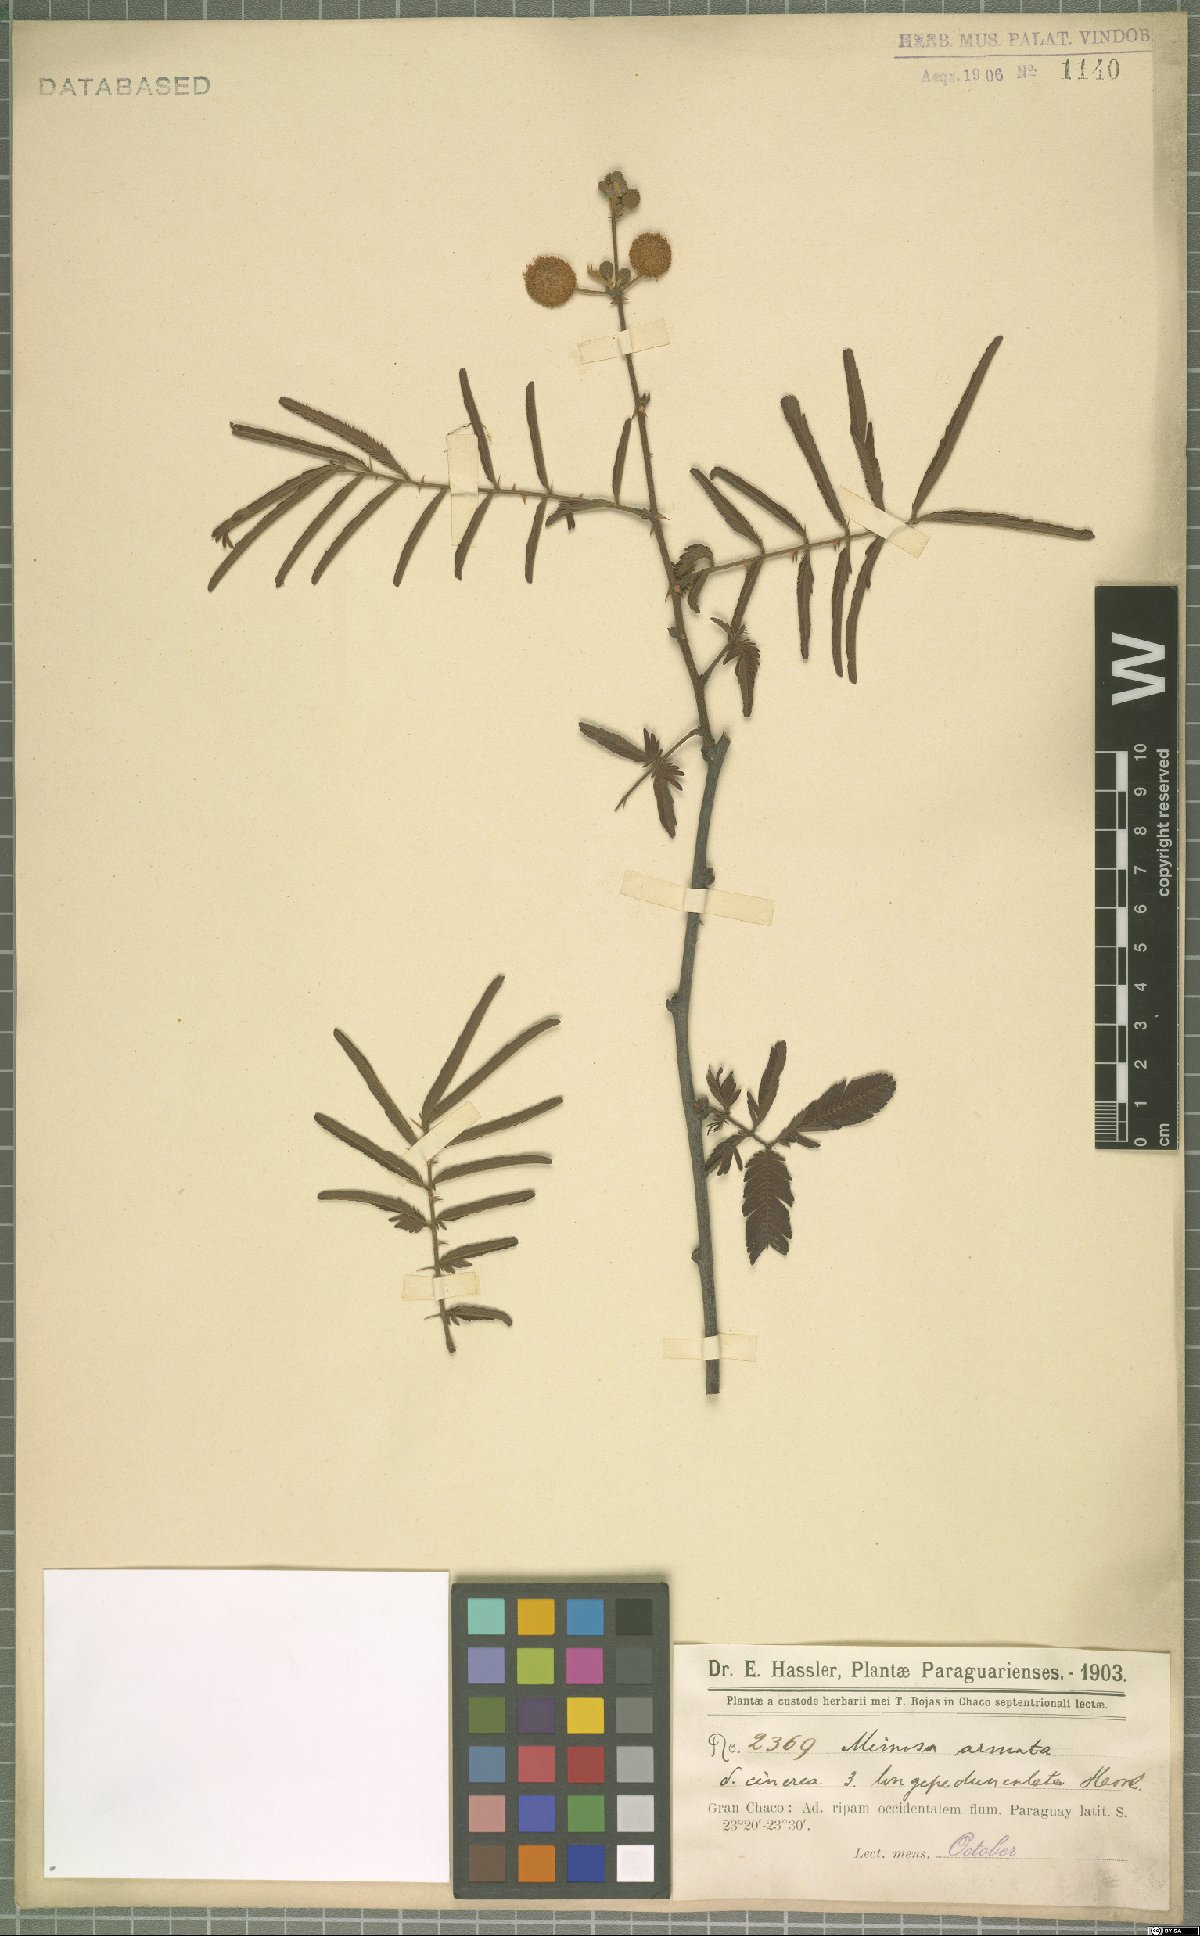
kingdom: Plantae
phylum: Tracheophyta
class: Magnoliopsida
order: Fabales
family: Fabaceae
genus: Mimosa
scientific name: Mimosa pigra
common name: Black mimosa
